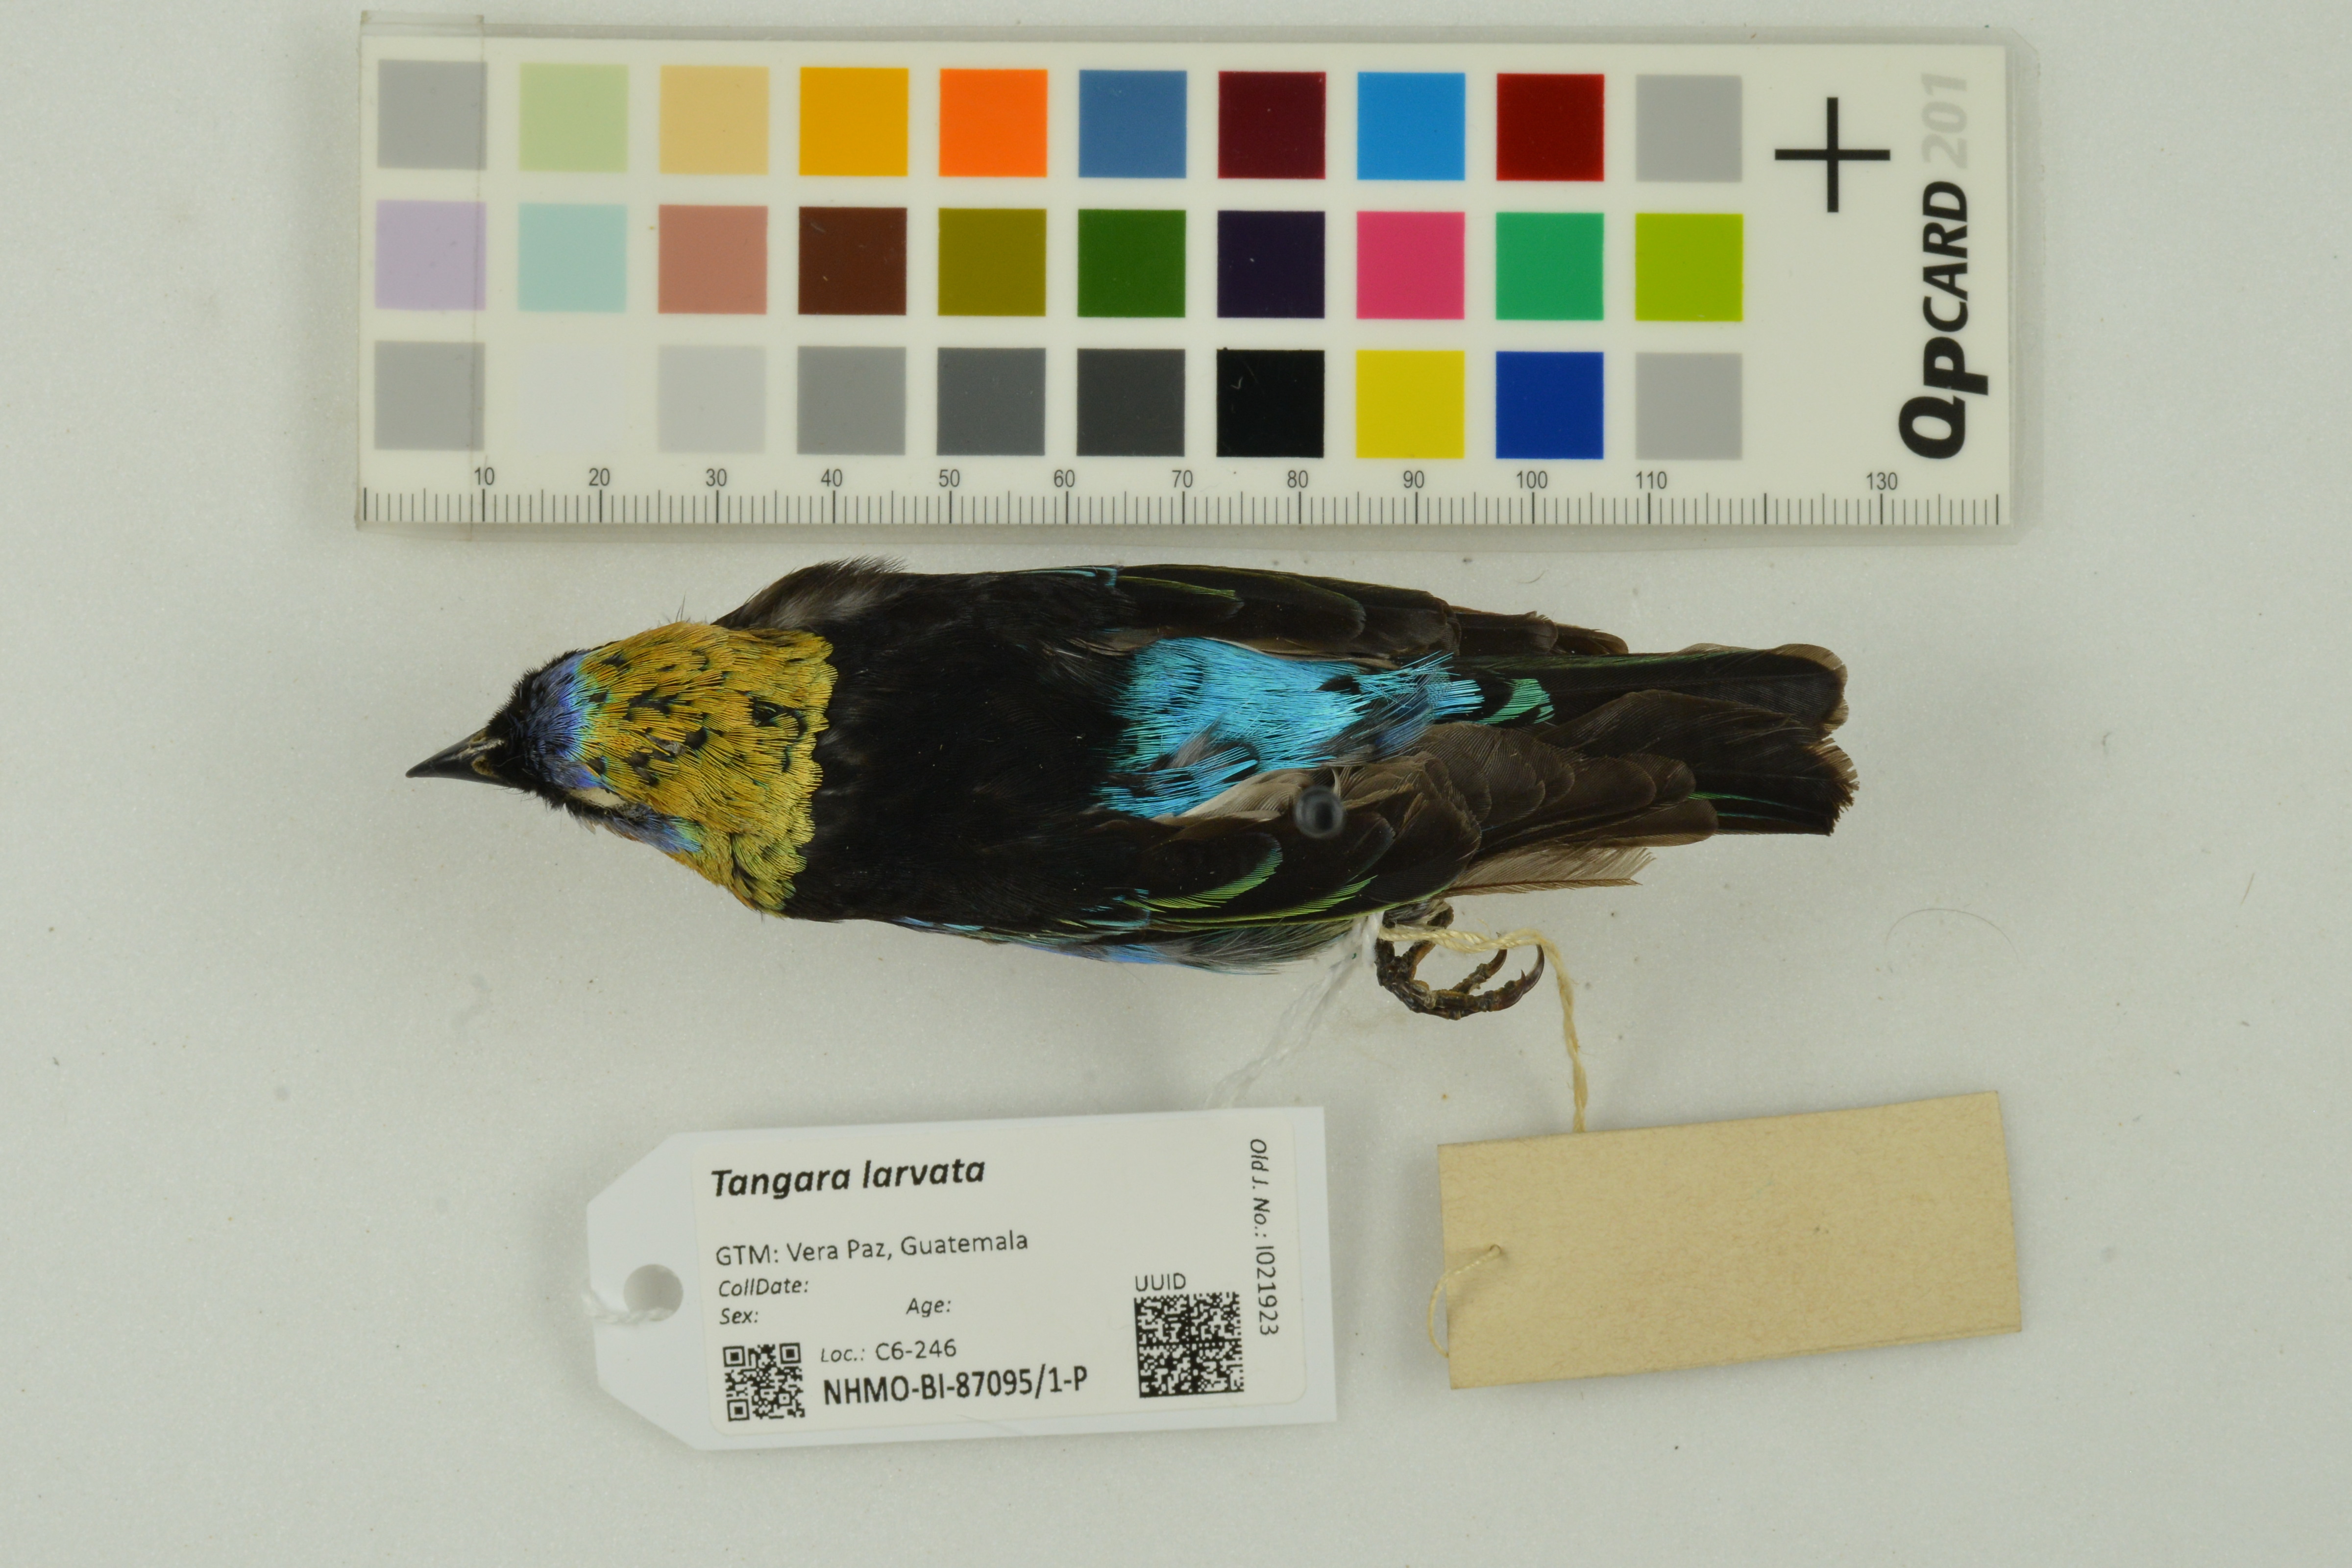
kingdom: Animalia
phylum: Chordata
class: Aves
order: Passeriformes
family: Thraupidae
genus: Stilpnia
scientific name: Stilpnia larvata
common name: Golden-hooded tanager
